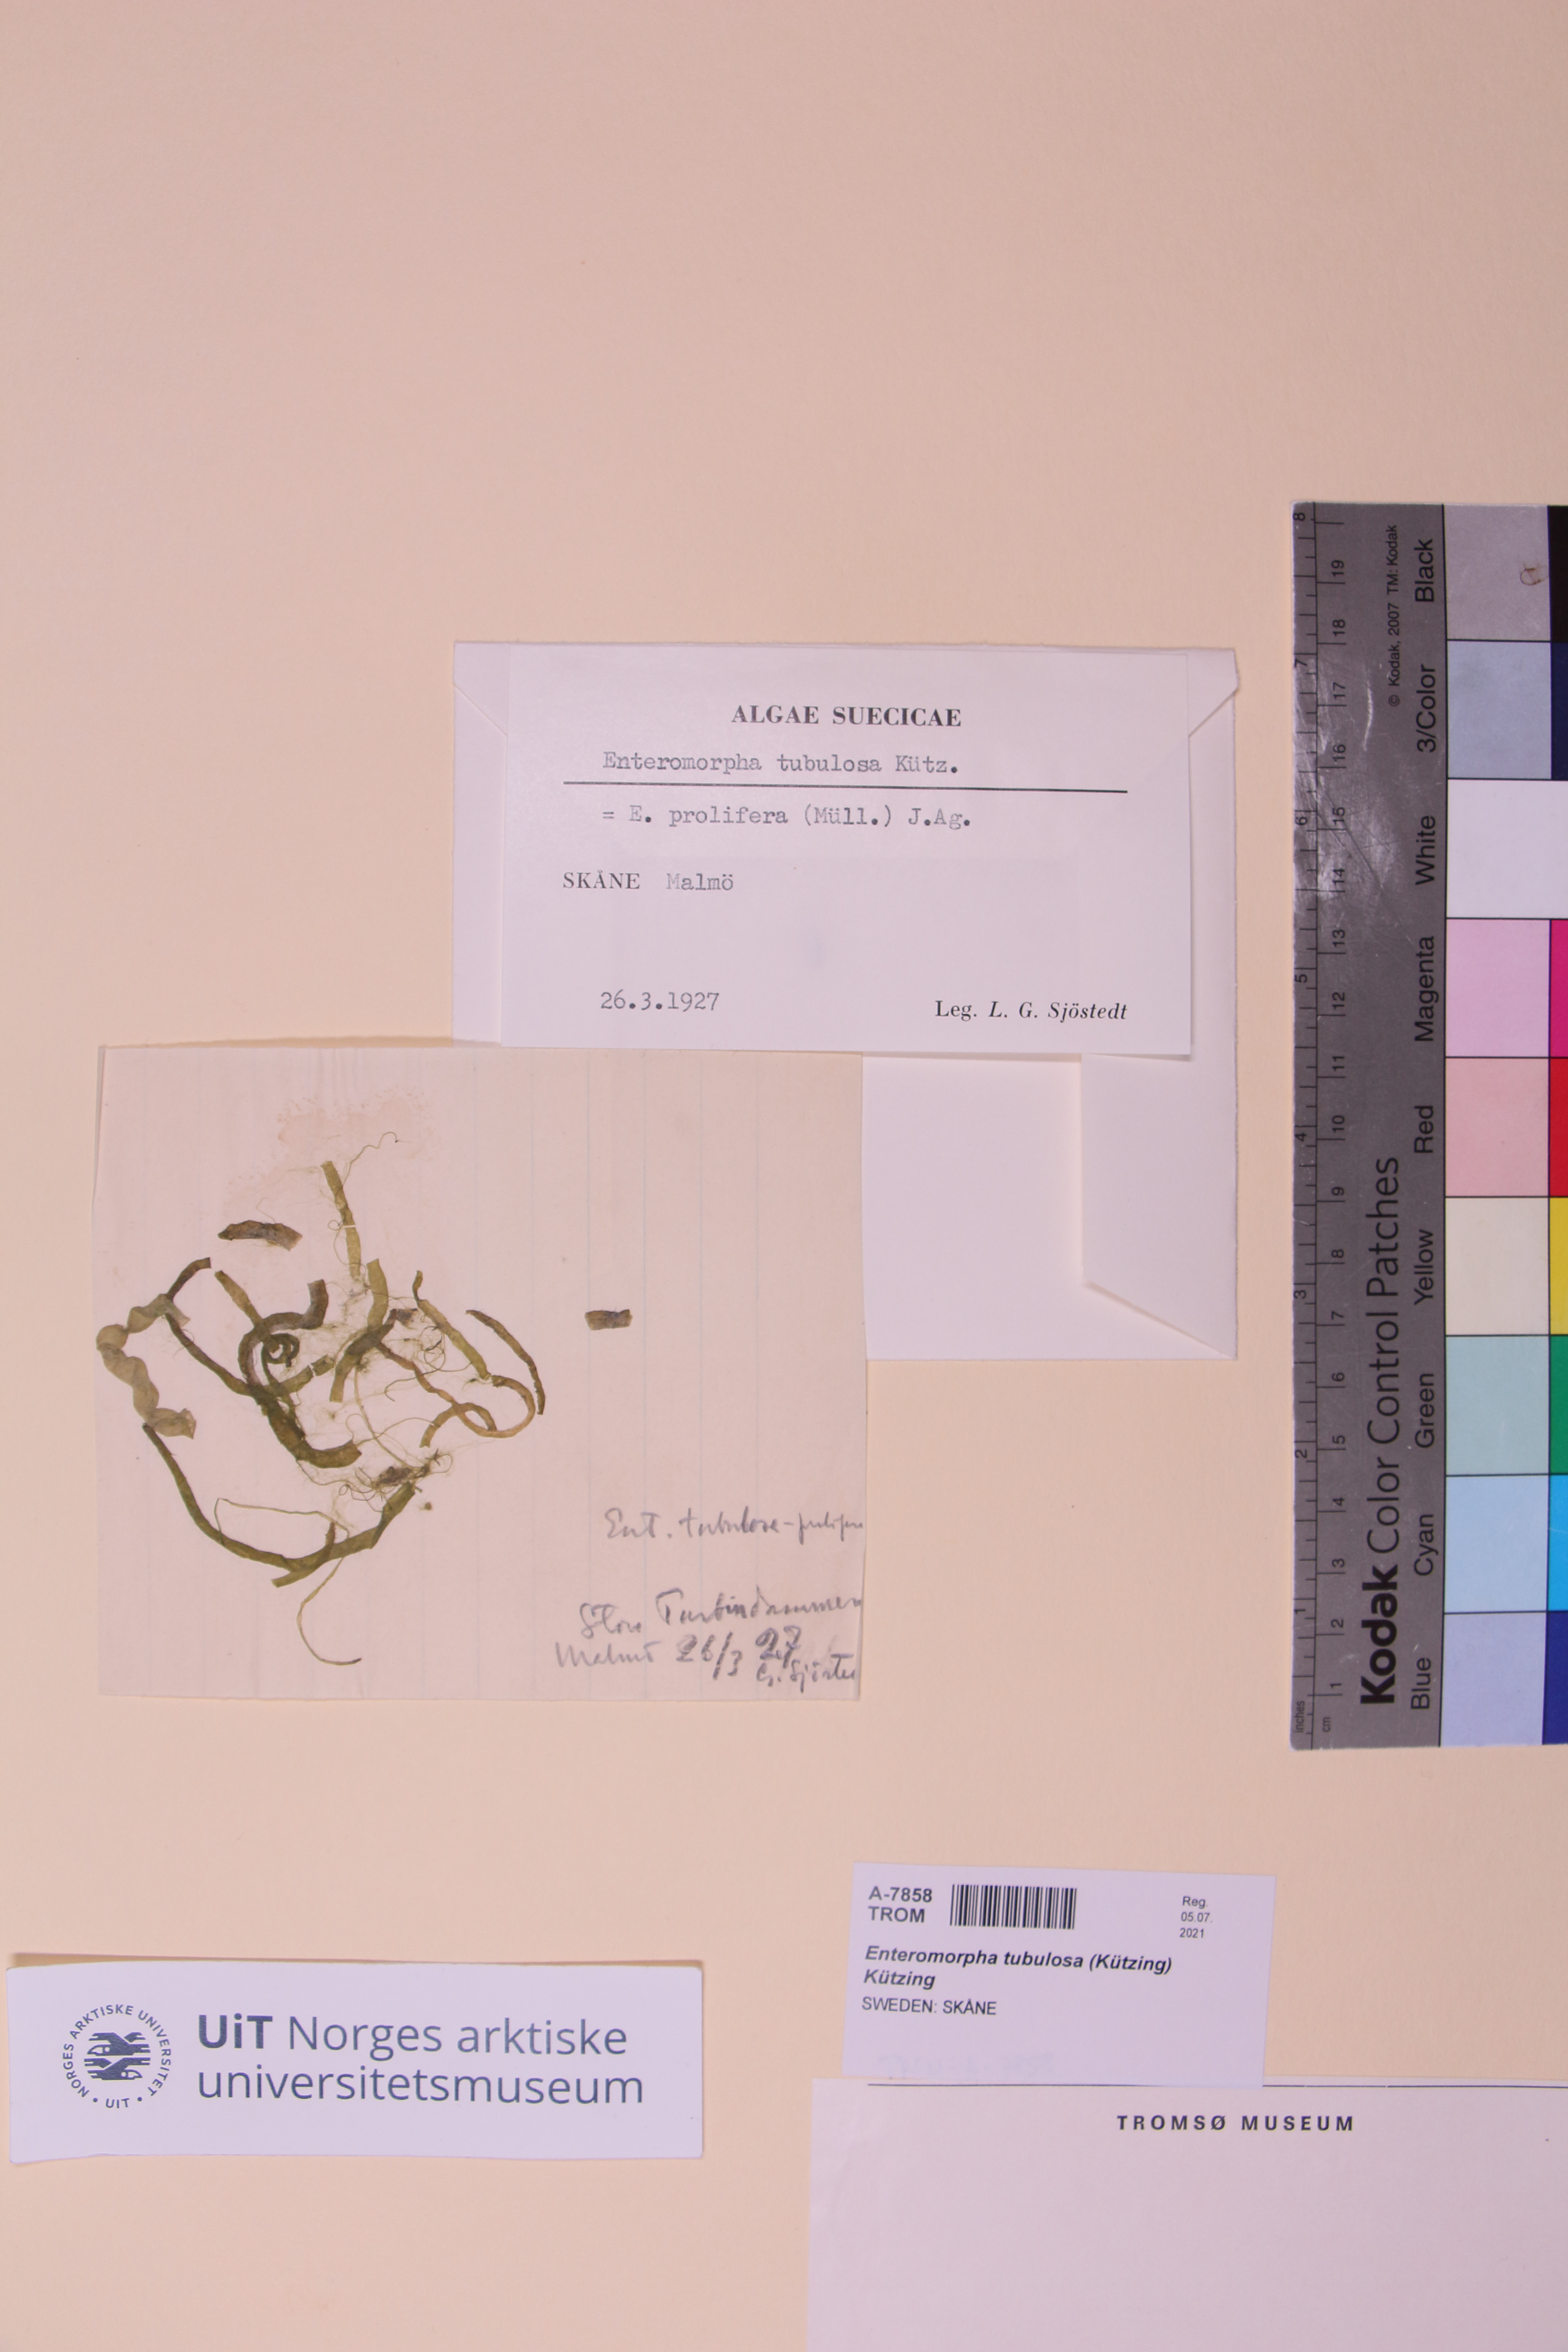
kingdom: Plantae
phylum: Chlorophyta
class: Ulvophyceae
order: Ulvales
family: Ulvaceae
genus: Ulva
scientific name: Ulva flexuosa
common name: Flexuous gutweed
